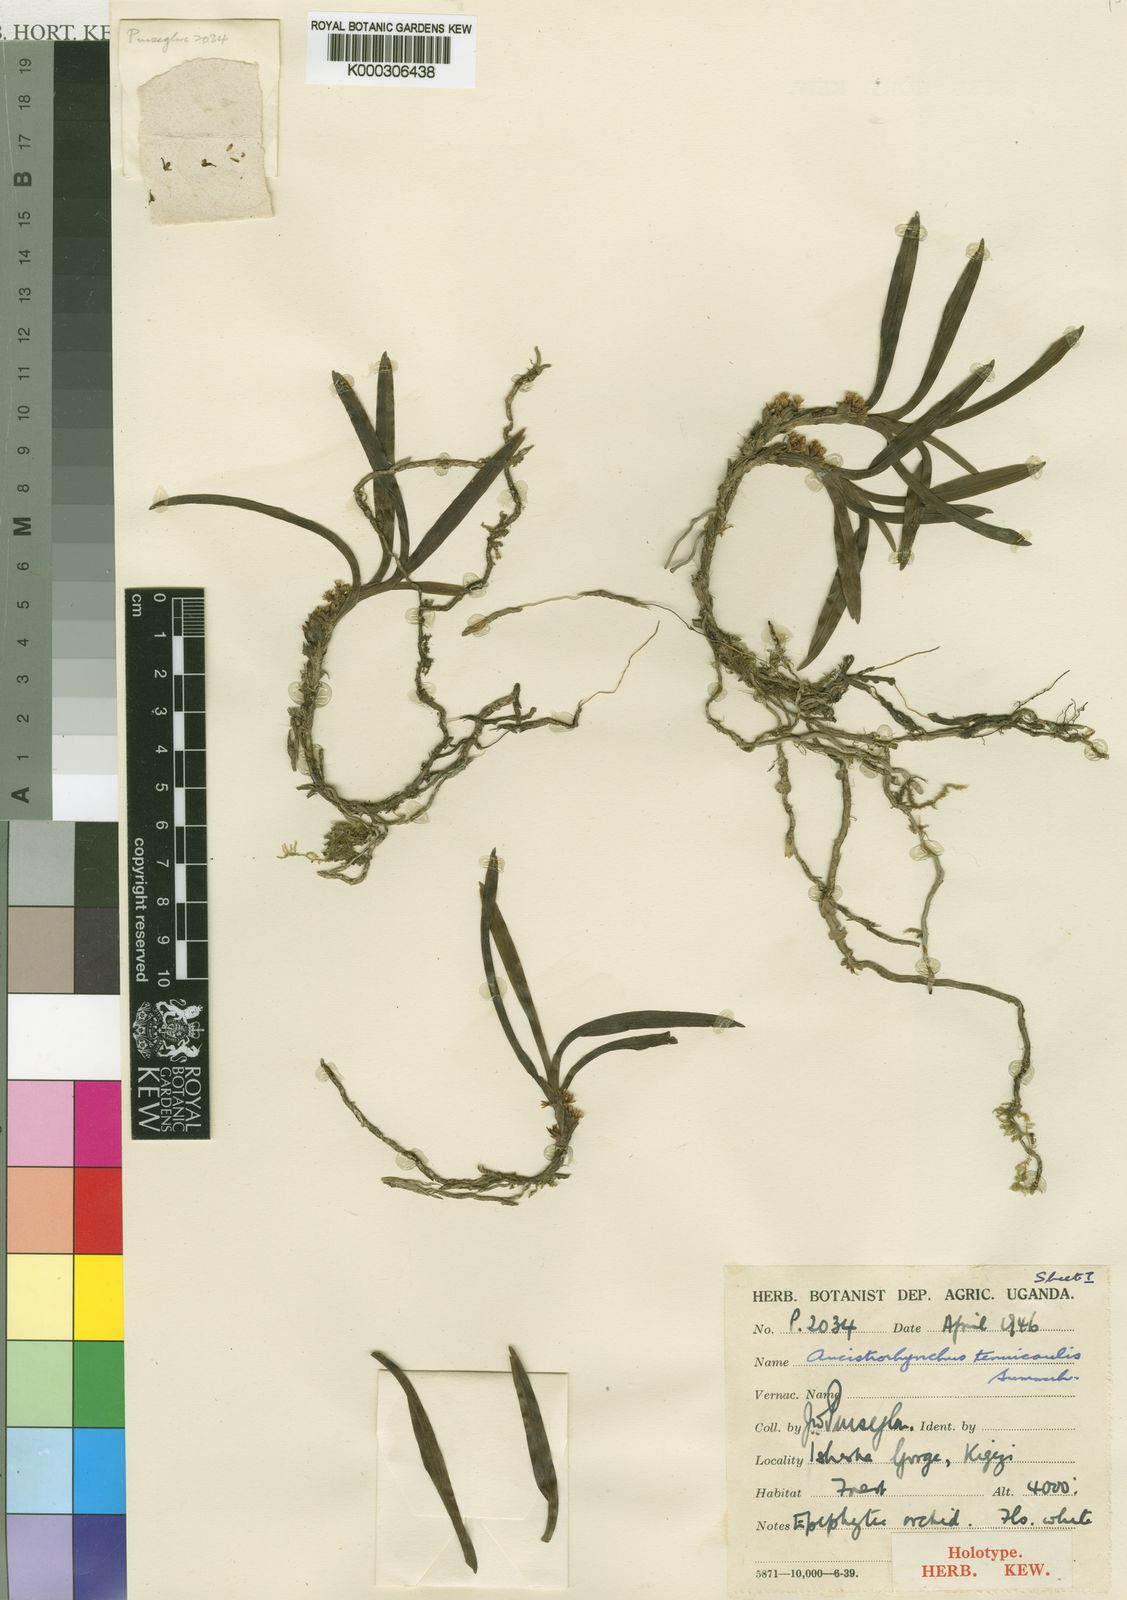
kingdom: Plantae
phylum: Tracheophyta
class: Liliopsida
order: Asparagales
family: Orchidaceae
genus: Ancistrorhynchus
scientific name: Ancistrorhynchus tenuicaulis
